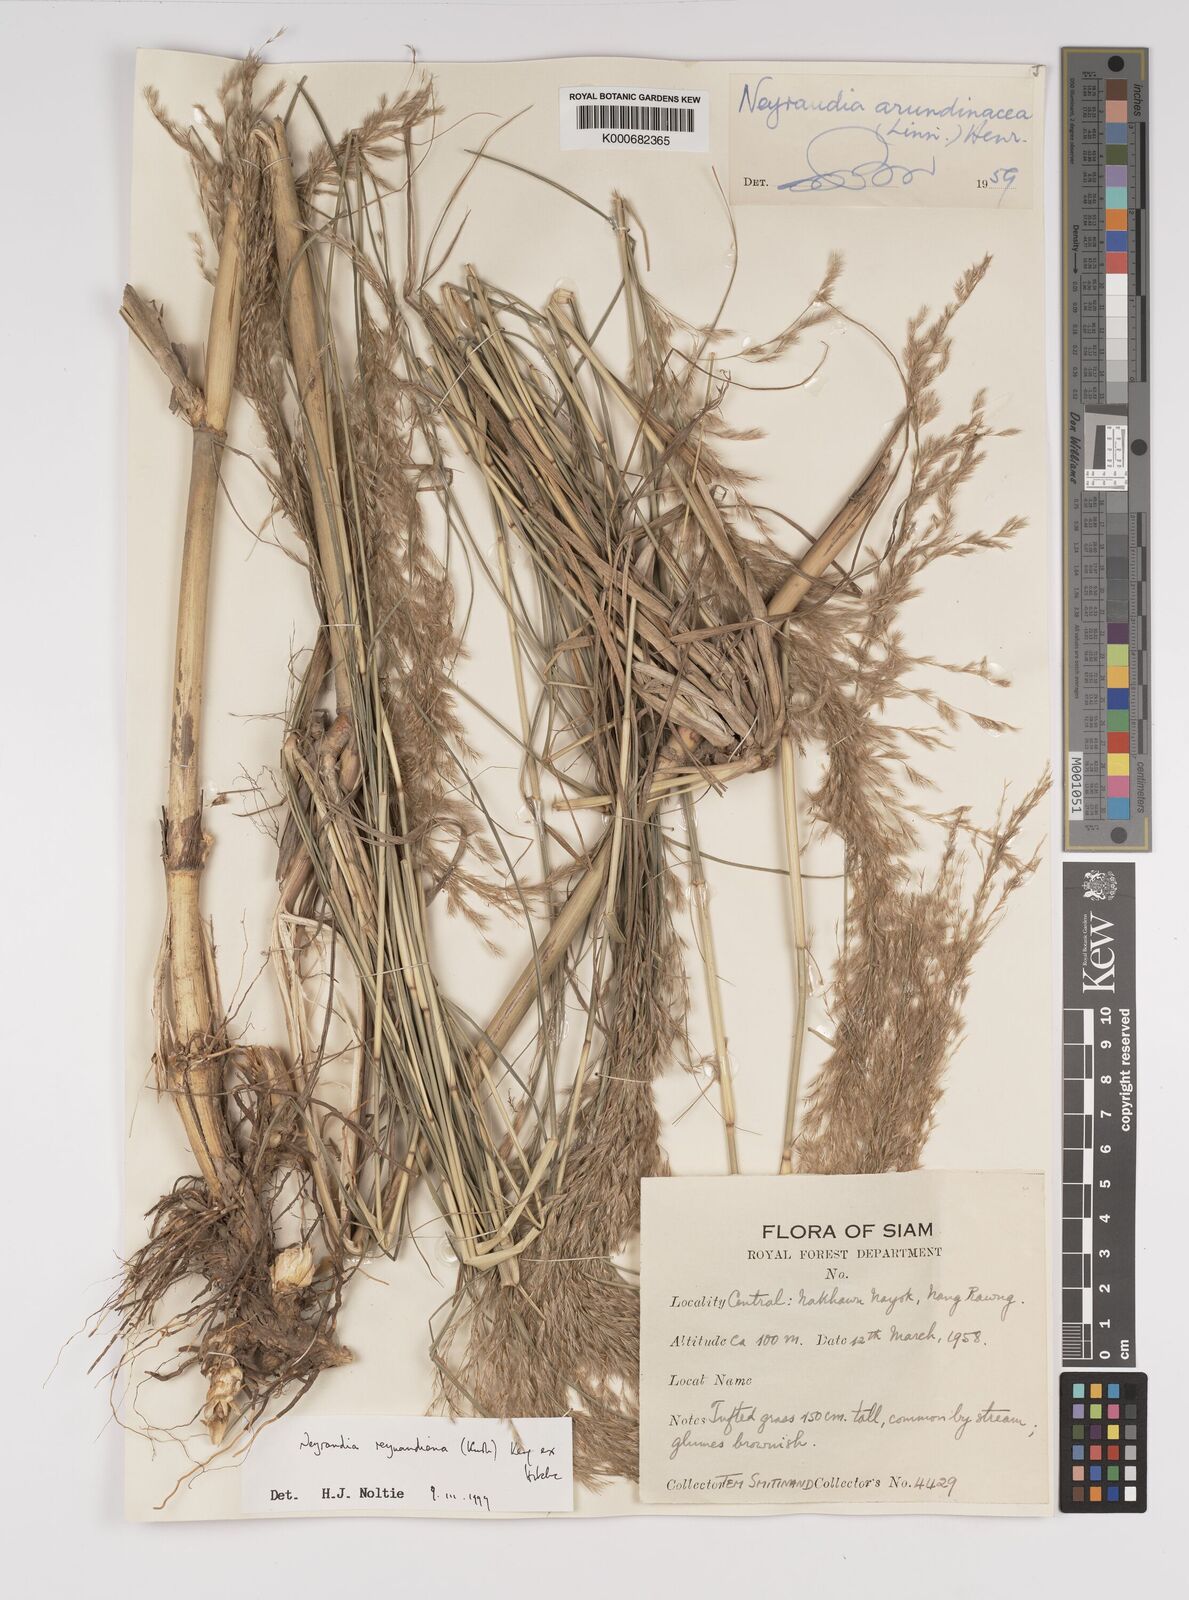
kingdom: Plantae
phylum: Tracheophyta
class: Liliopsida
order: Poales
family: Poaceae
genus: Neyraudia
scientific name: Neyraudia reynaudiana
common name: Silkreed
